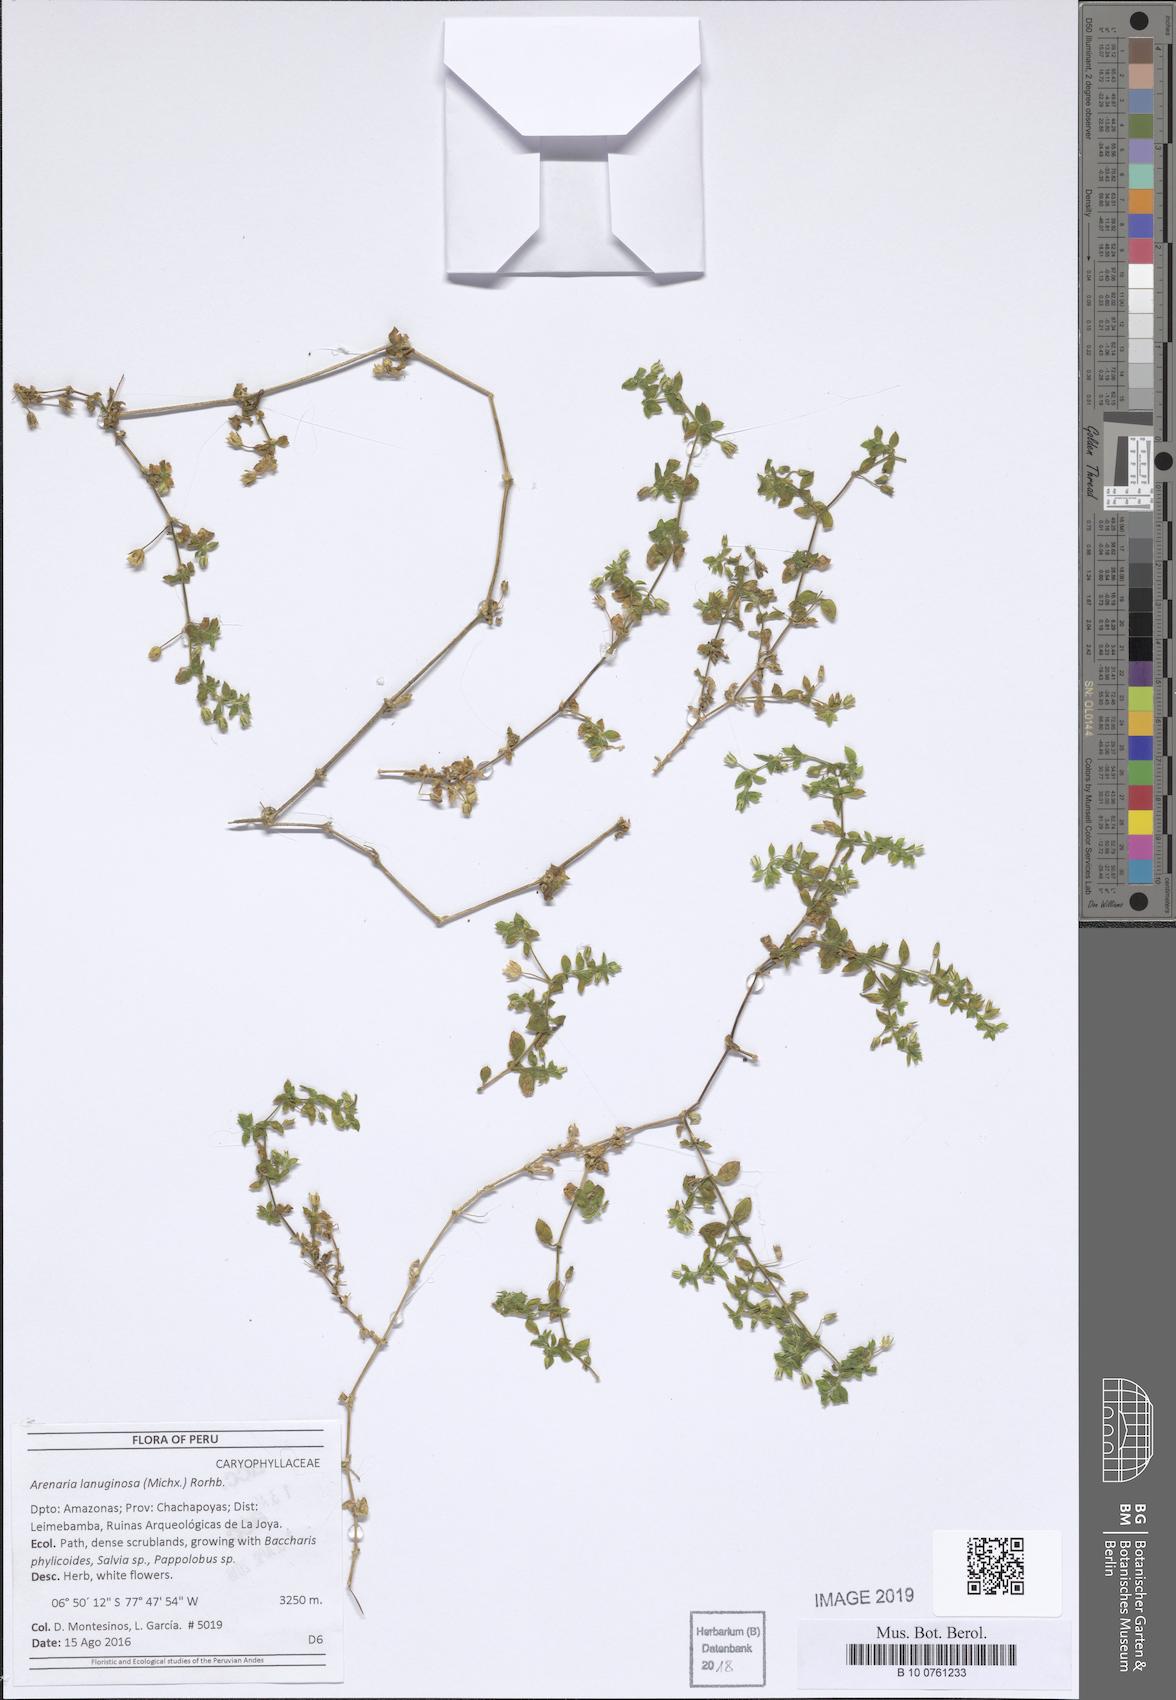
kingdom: Plantae
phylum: Tracheophyta
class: Magnoliopsida
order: Caryophyllales
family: Caryophyllaceae
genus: Arenaria
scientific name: Arenaria lanuginosa
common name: Spread sandwort
